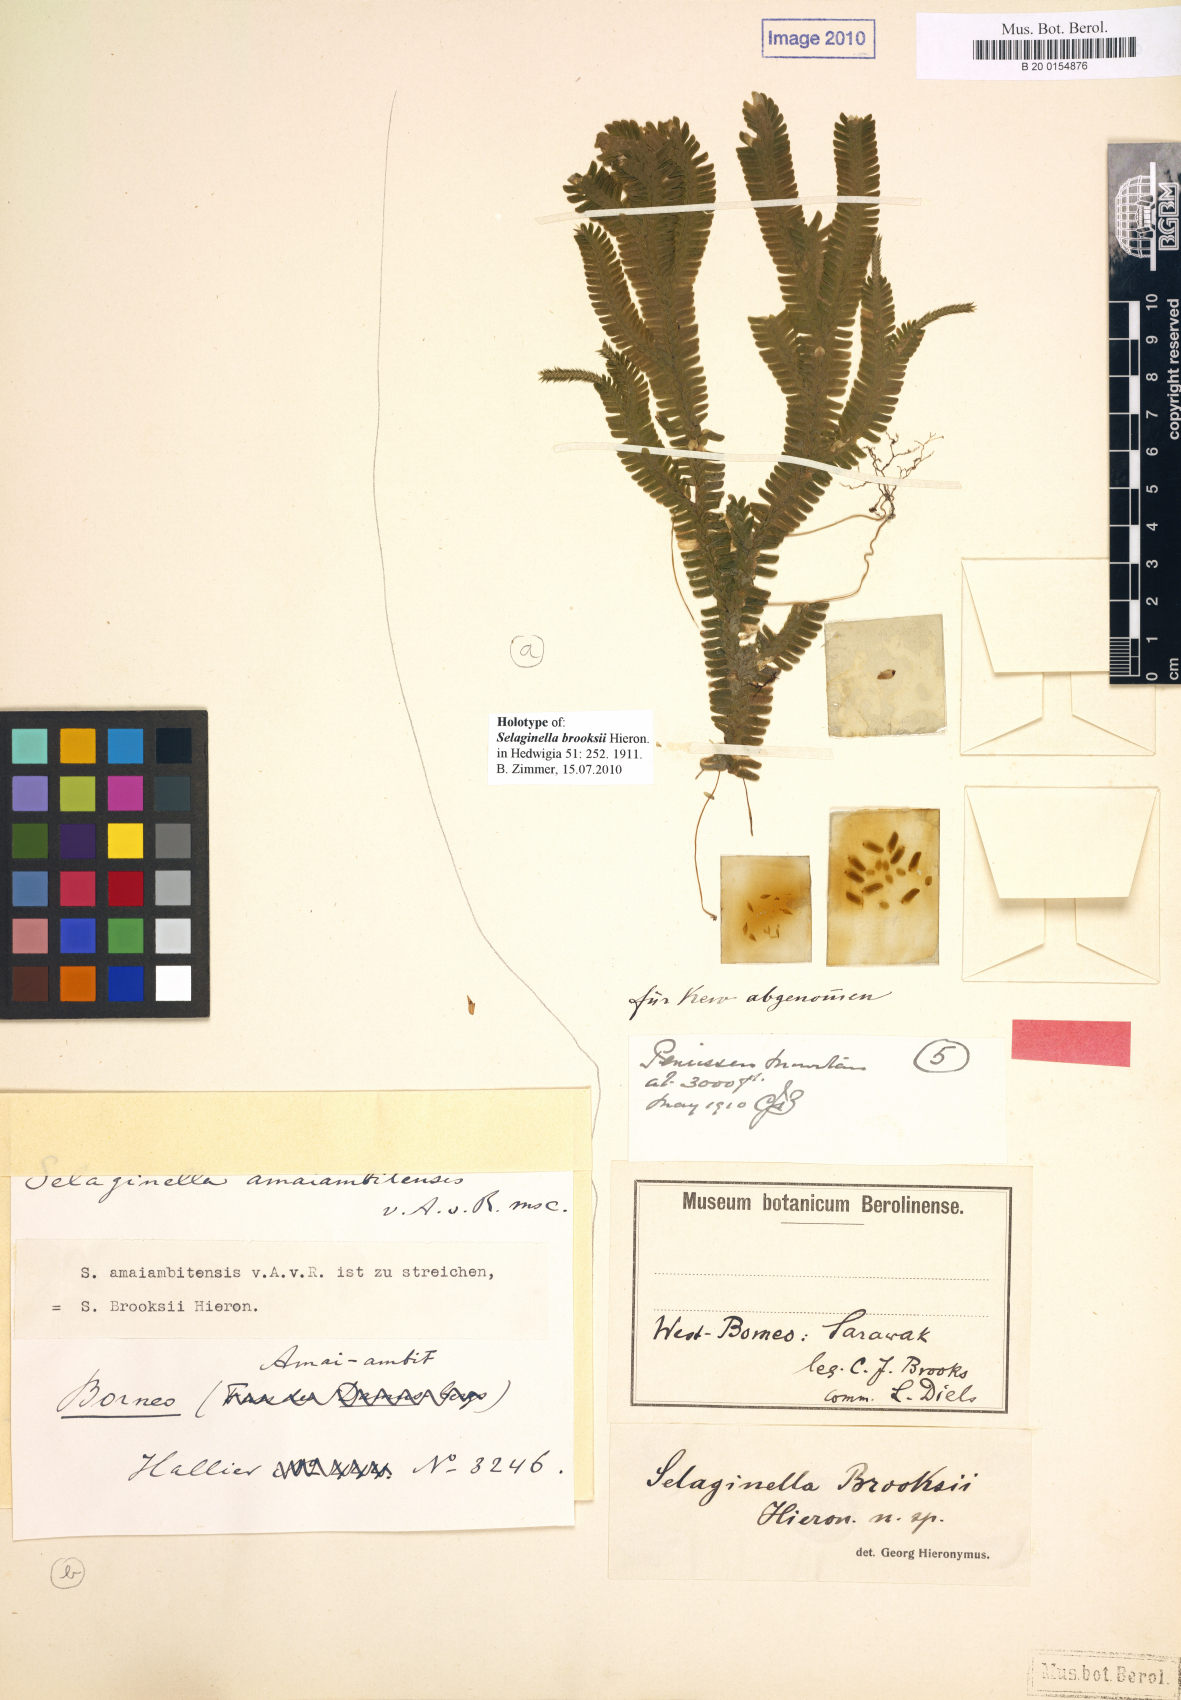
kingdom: Plantae
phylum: Tracheophyta
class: Lycopodiopsida
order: Selaginellales
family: Selaginellaceae
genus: Selaginella
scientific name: Selaginella brooksii
